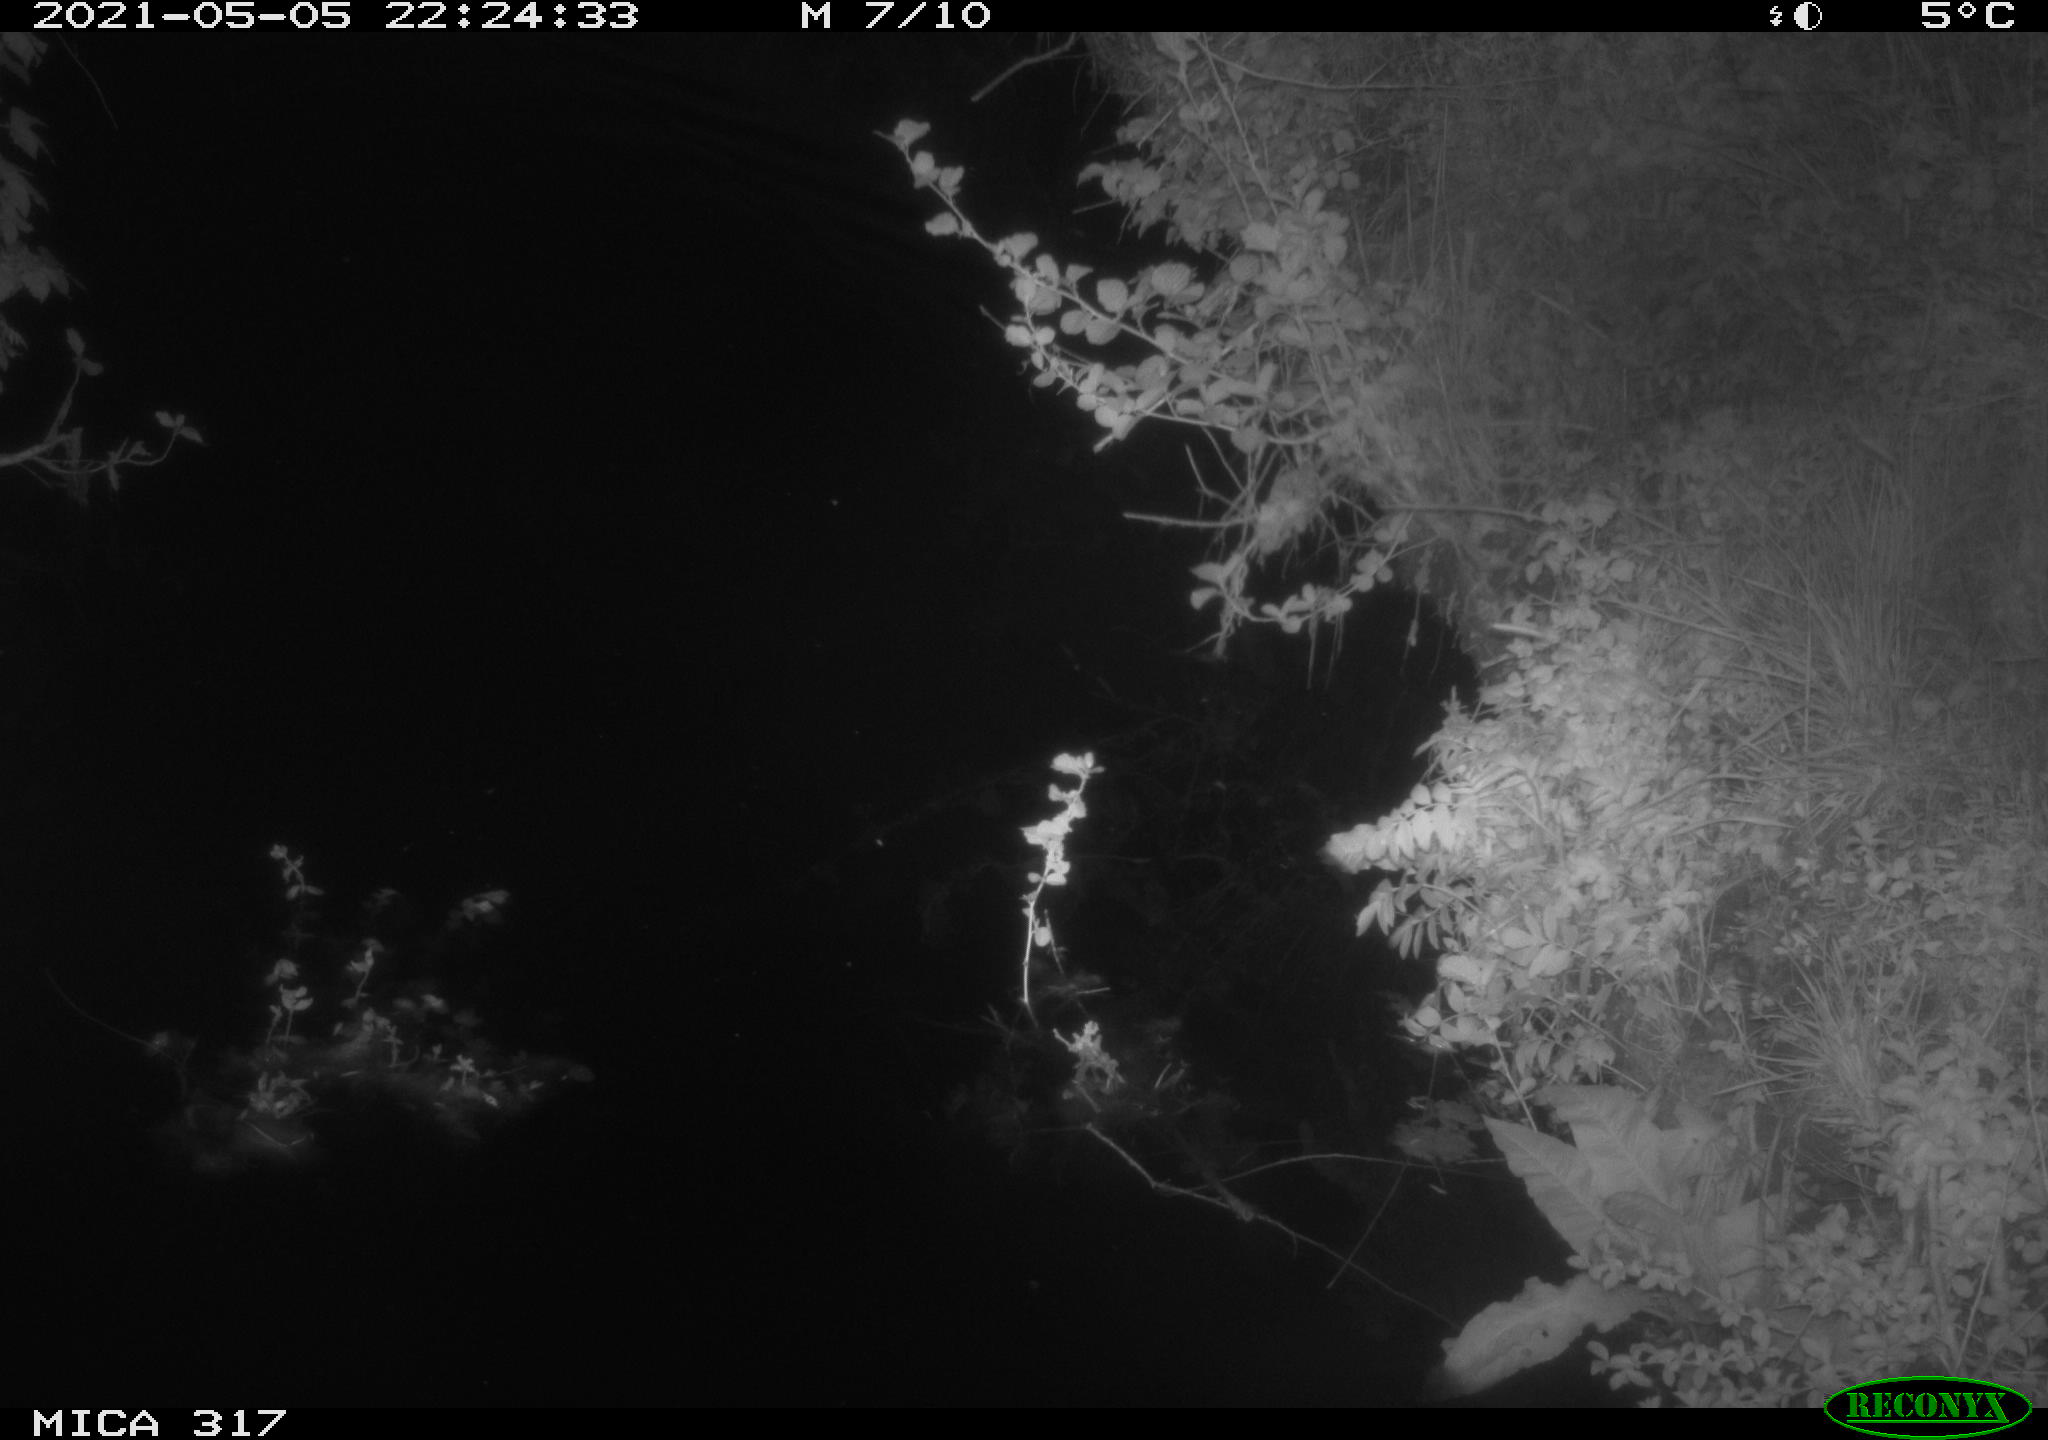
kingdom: Animalia
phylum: Chordata
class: Aves
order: Anseriformes
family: Anatidae
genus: Anas
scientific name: Anas
